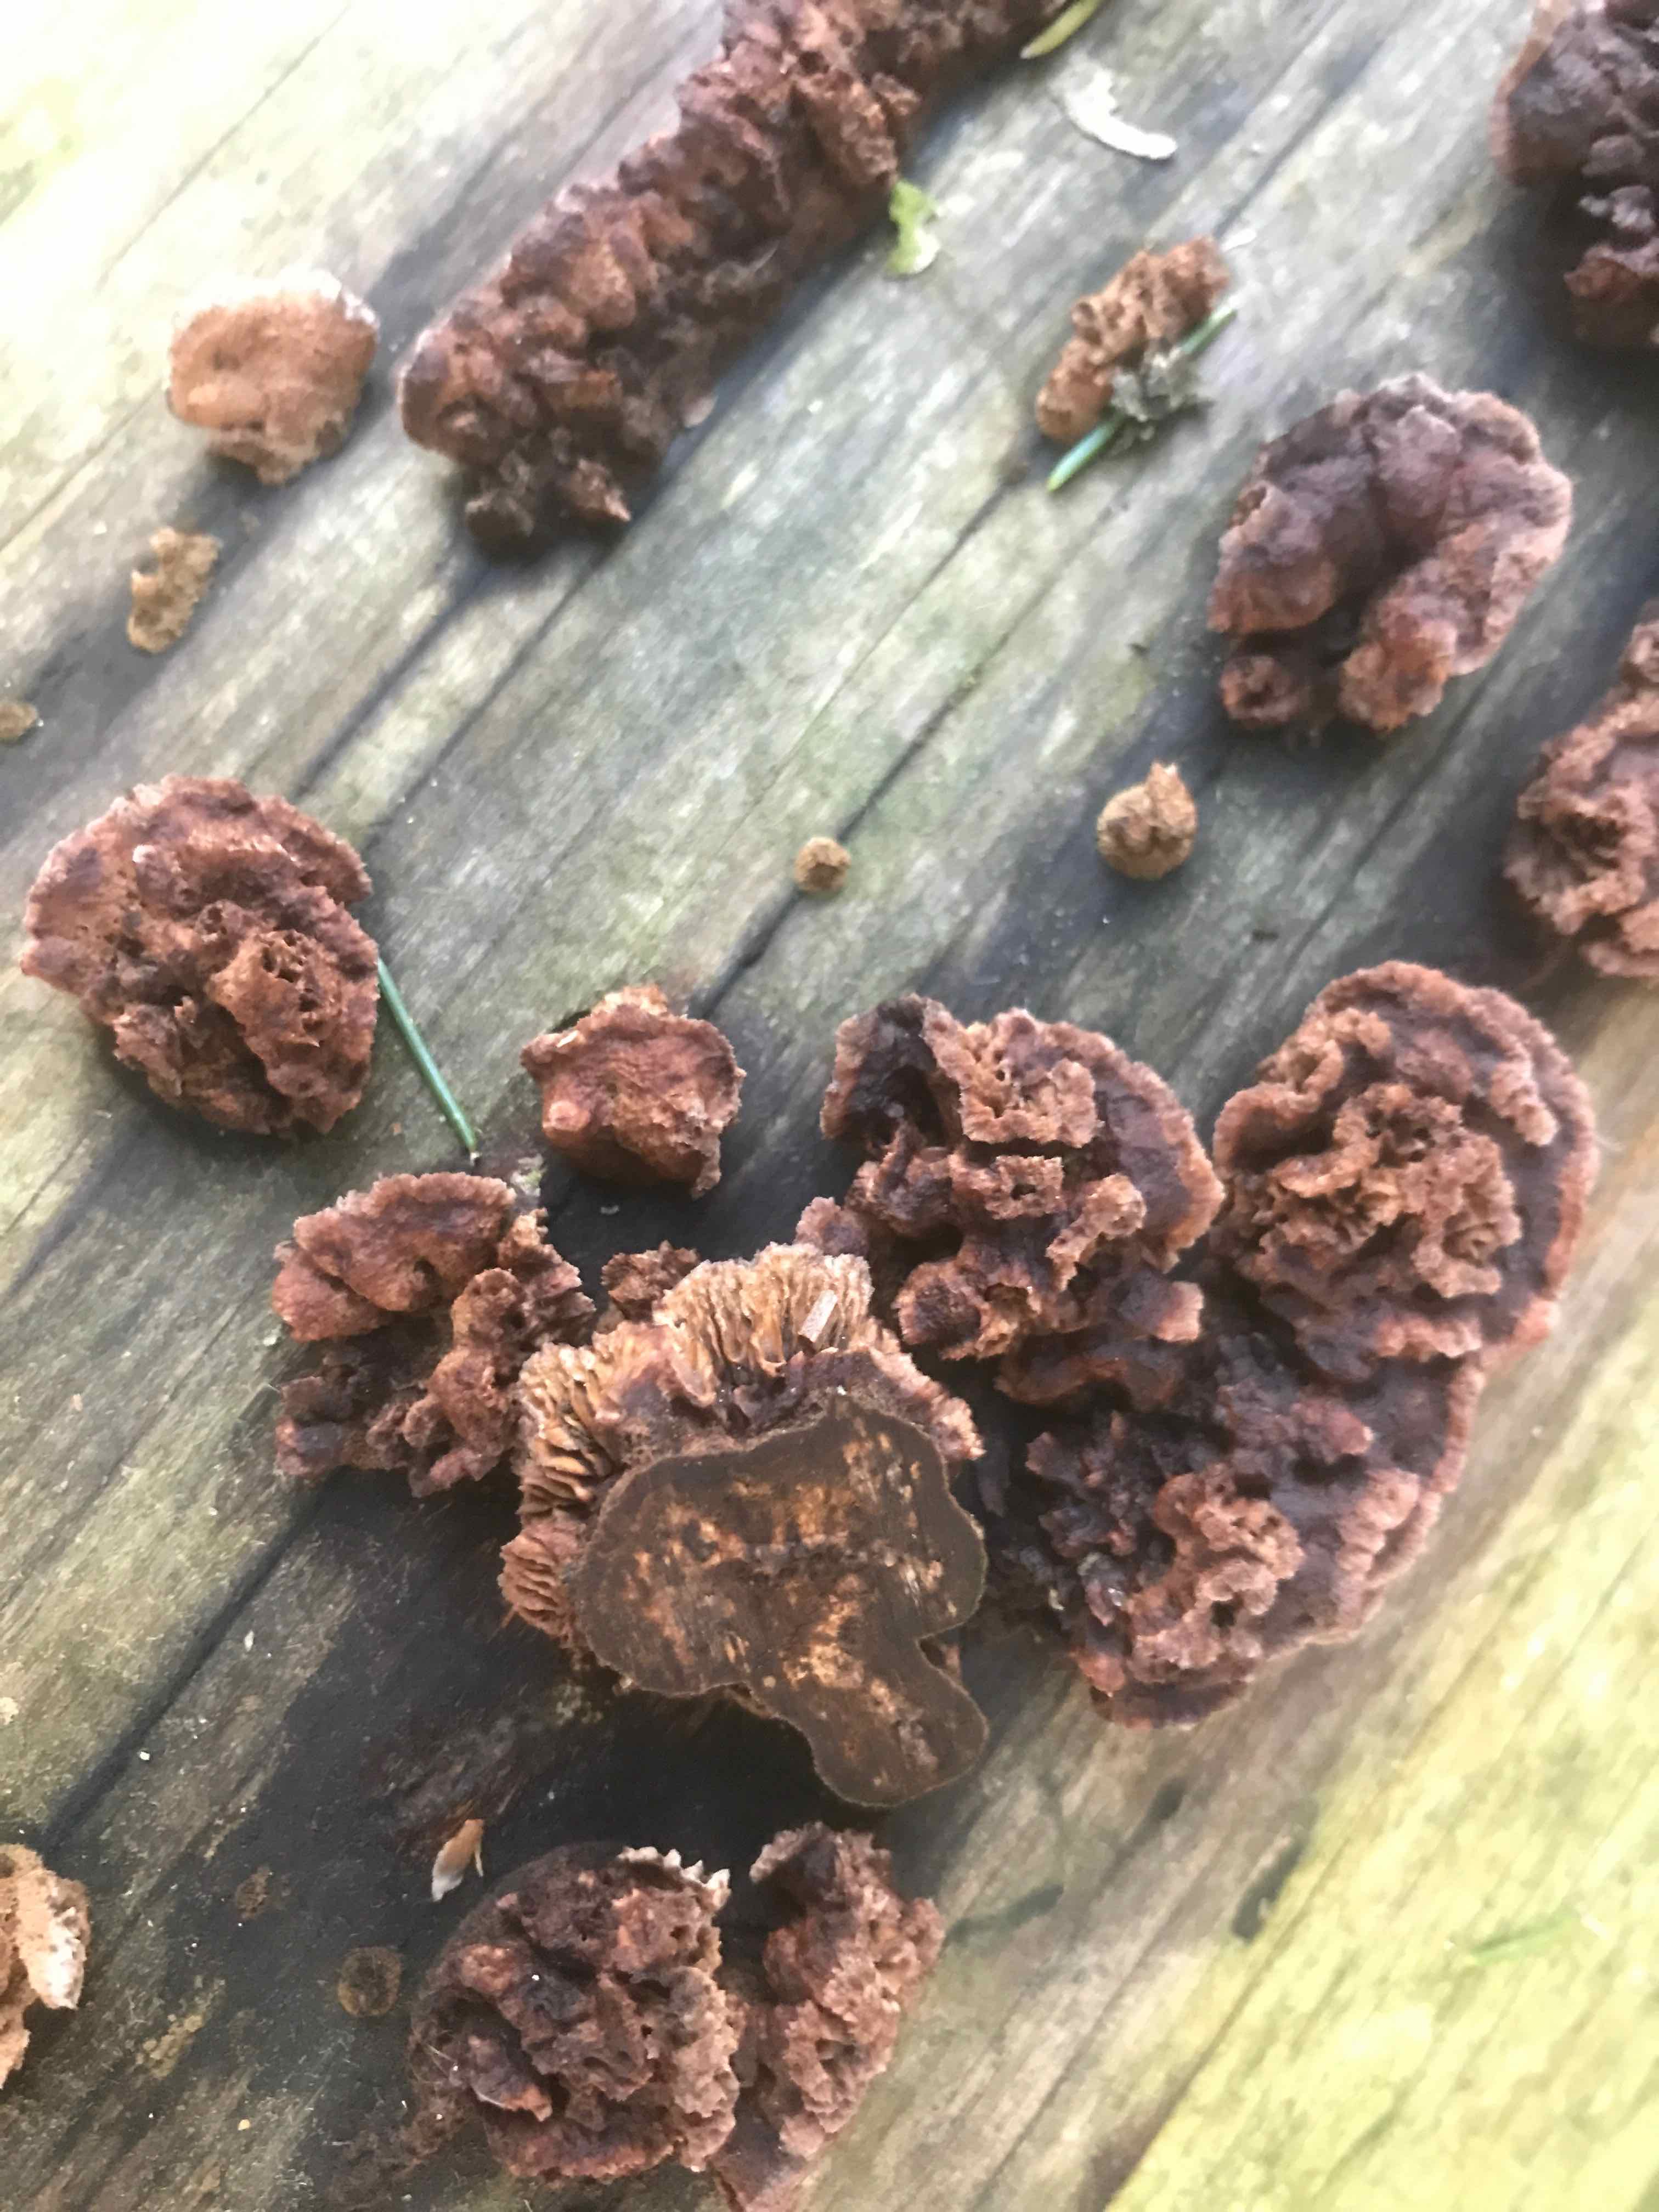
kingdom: Fungi
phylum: Basidiomycota
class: Agaricomycetes
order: Gloeophyllales
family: Gloeophyllaceae
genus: Gloeophyllum
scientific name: Gloeophyllum sepiarium
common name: fyrre-korkhat
